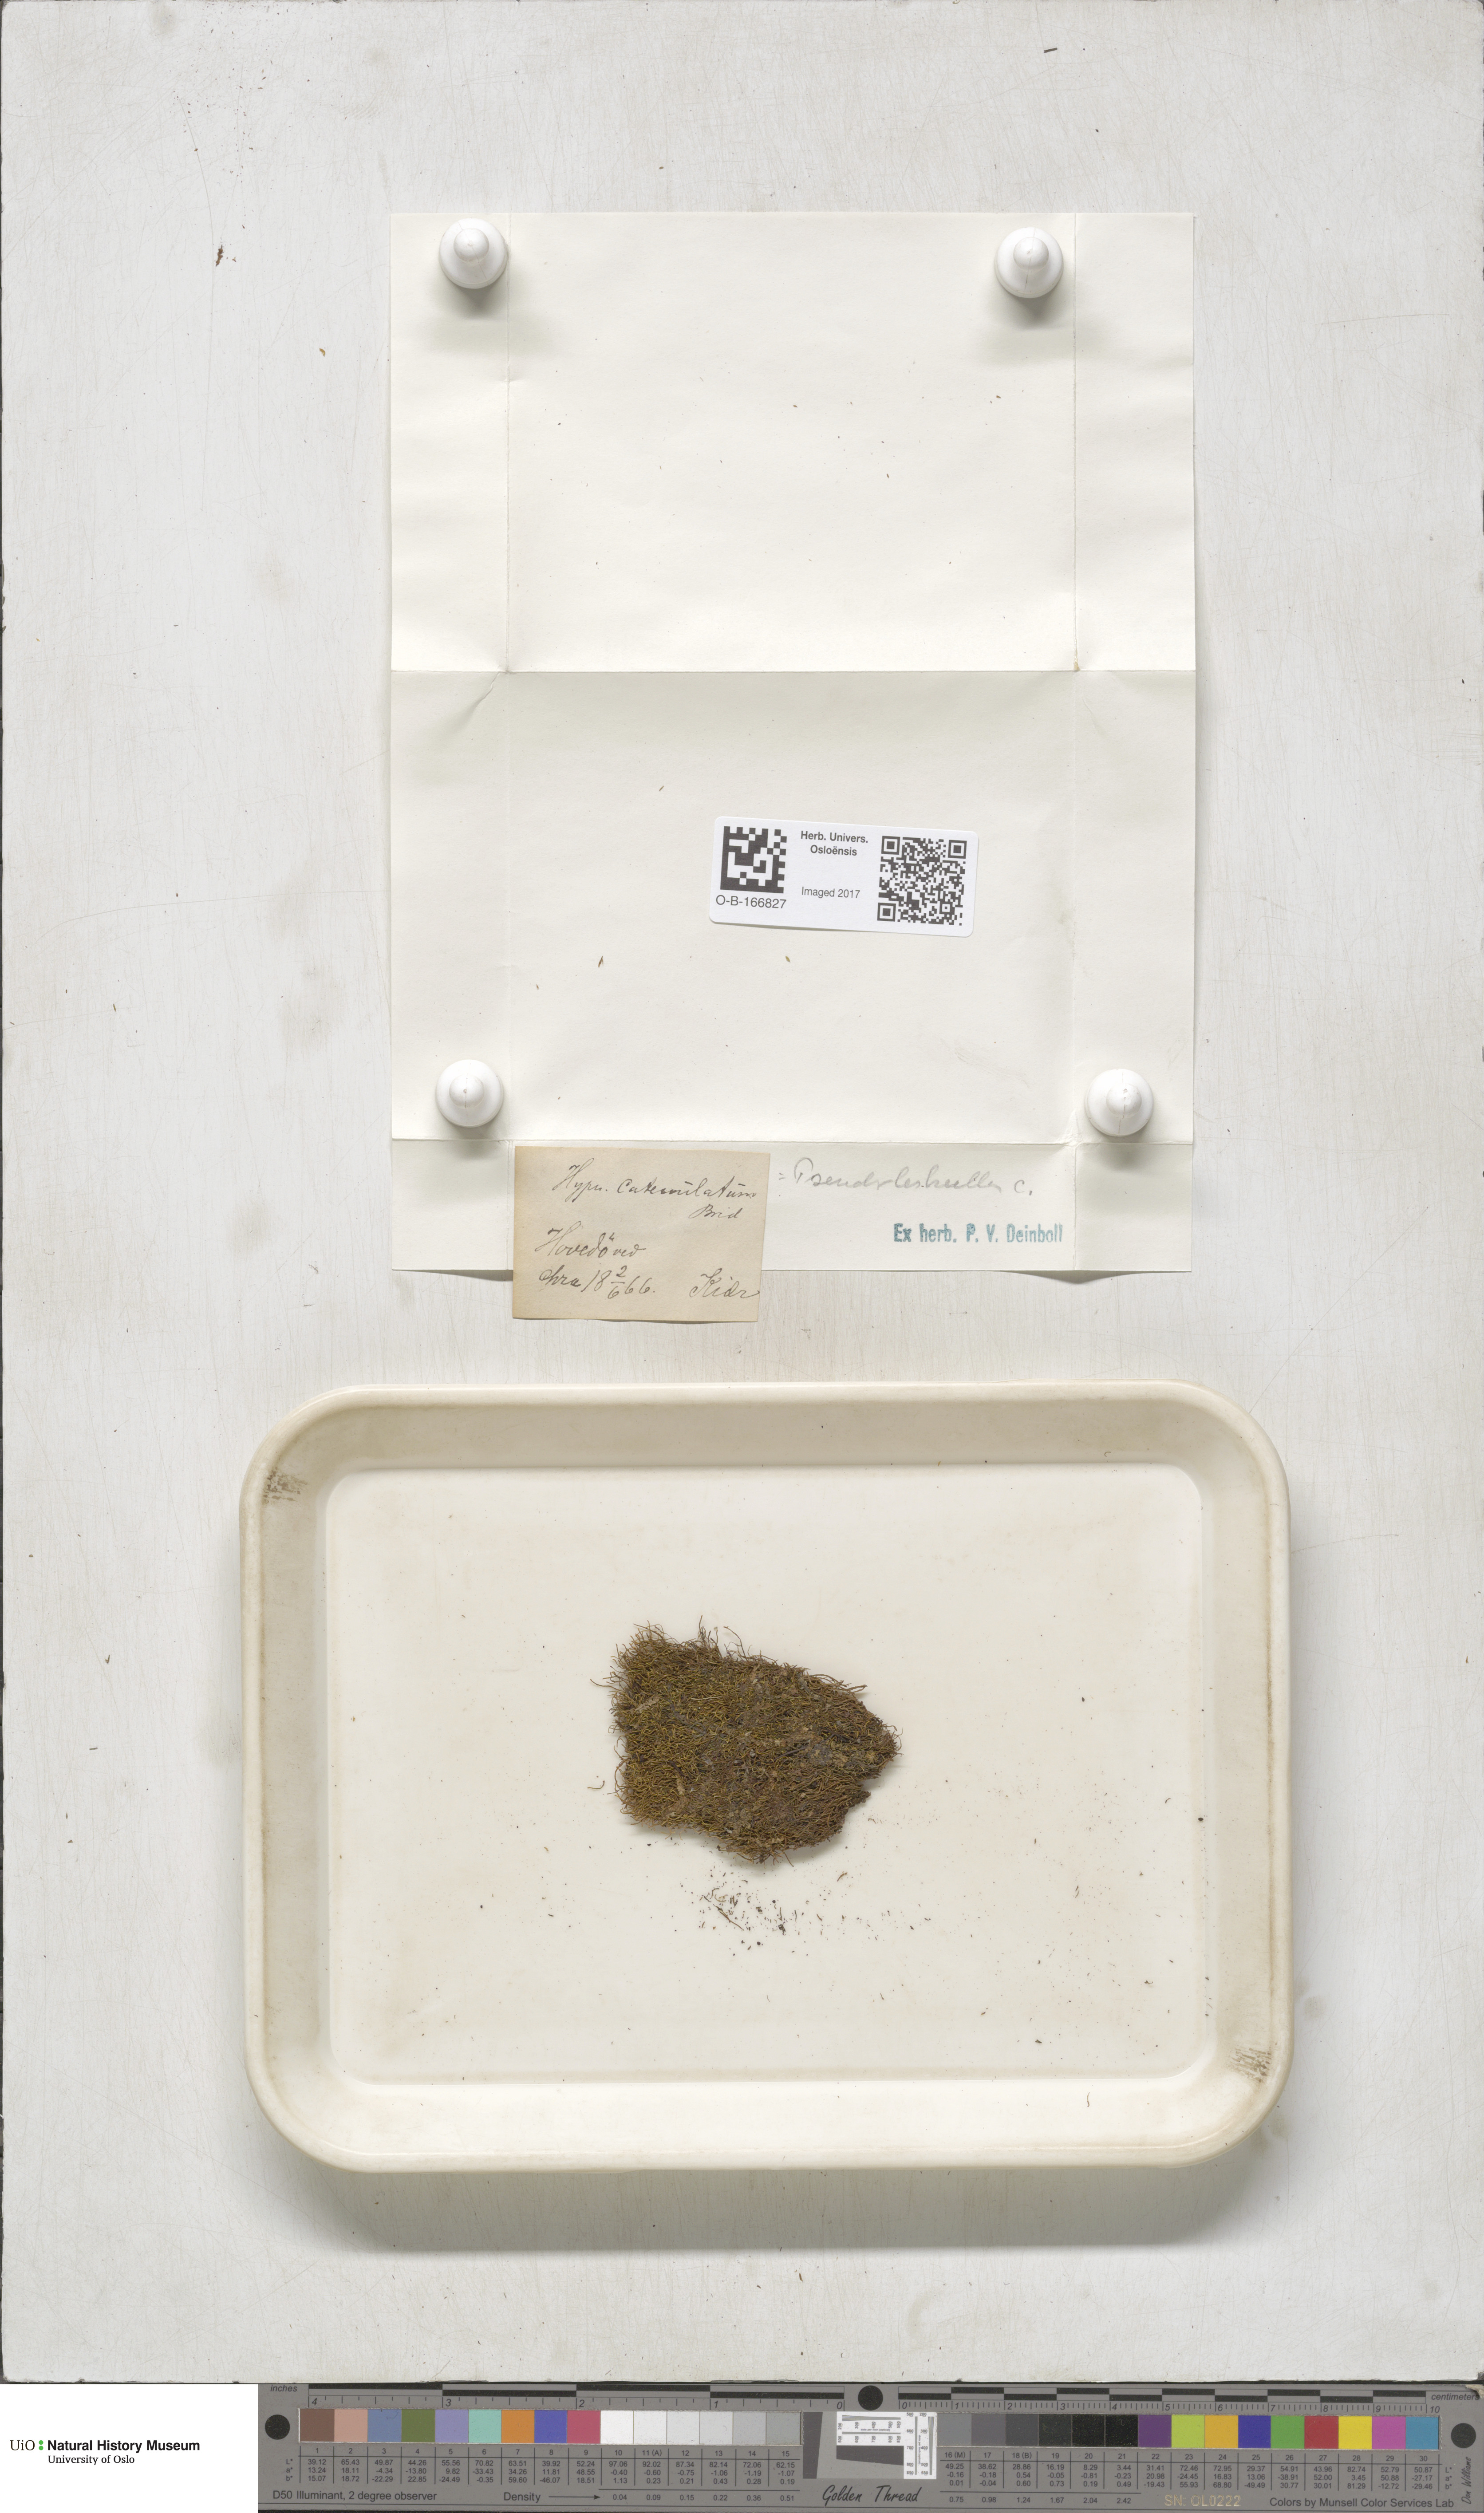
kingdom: Plantae
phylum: Bryophyta
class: Bryopsida
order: Hypnales
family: Pseudoleskeellaceae
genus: Pseudoleskeella
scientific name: Pseudoleskeella catenulata
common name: Chained leskea
